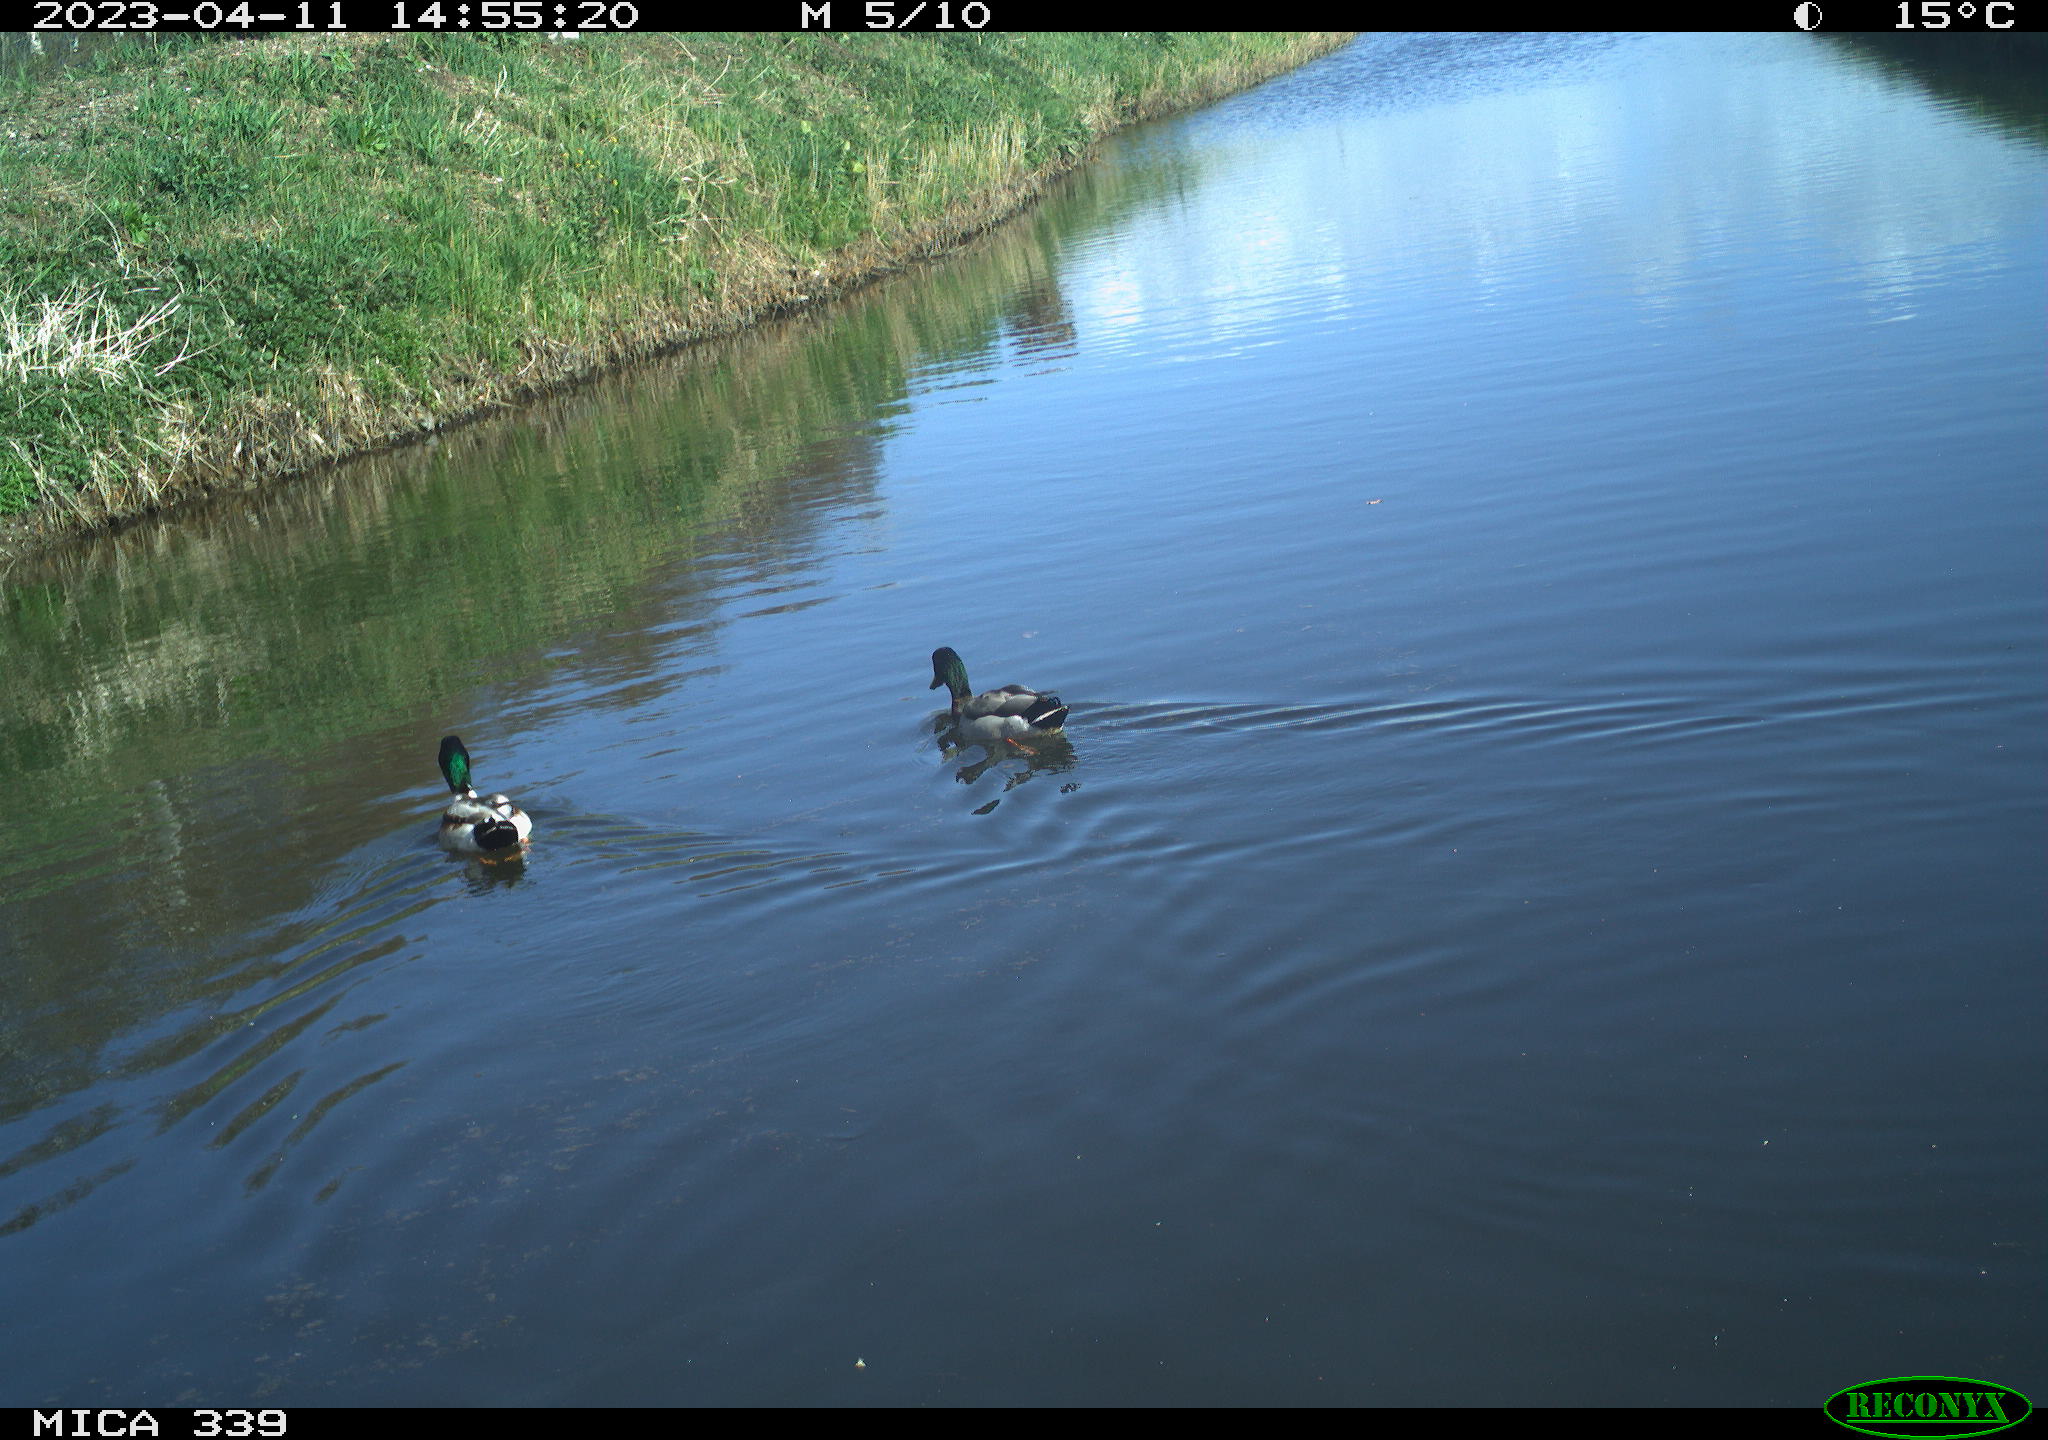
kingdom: Animalia
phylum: Chordata
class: Aves
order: Anseriformes
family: Anatidae
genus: Anas
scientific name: Anas
